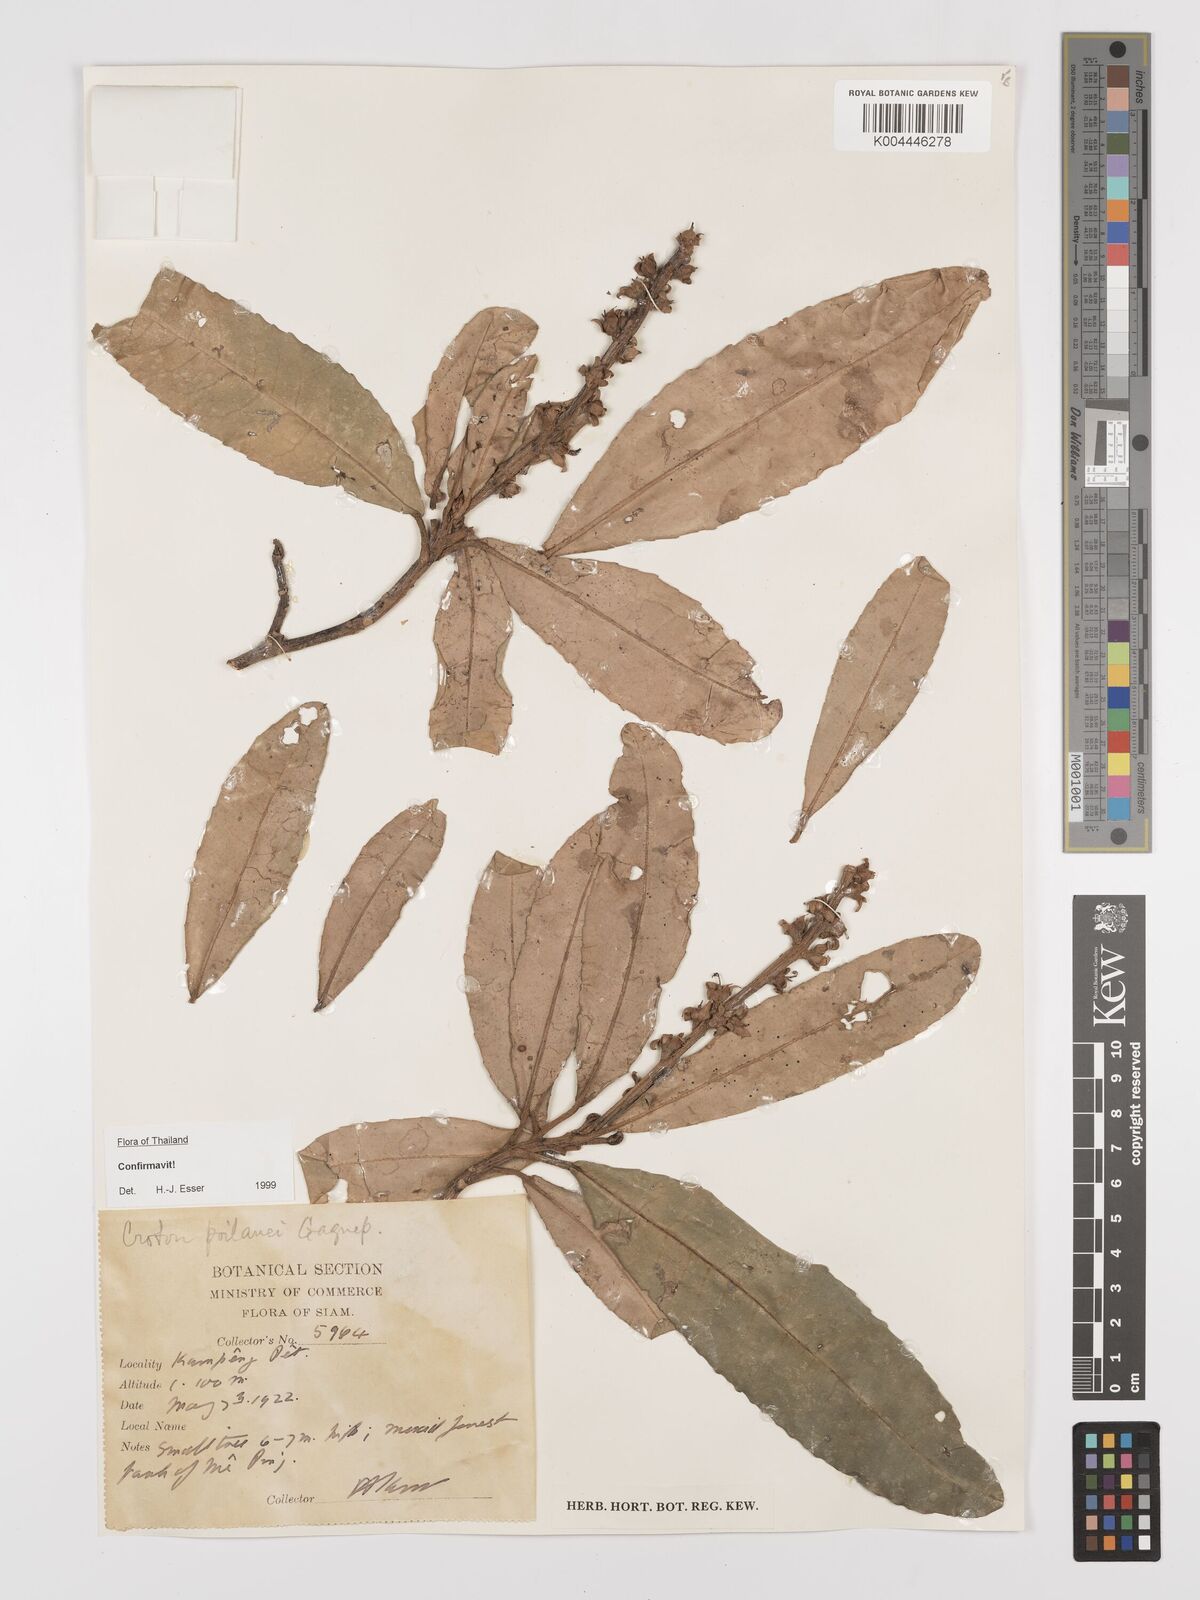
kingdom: Plantae
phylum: Tracheophyta
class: Magnoliopsida
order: Malpighiales
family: Euphorbiaceae
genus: Croton
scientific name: Croton poilanei
